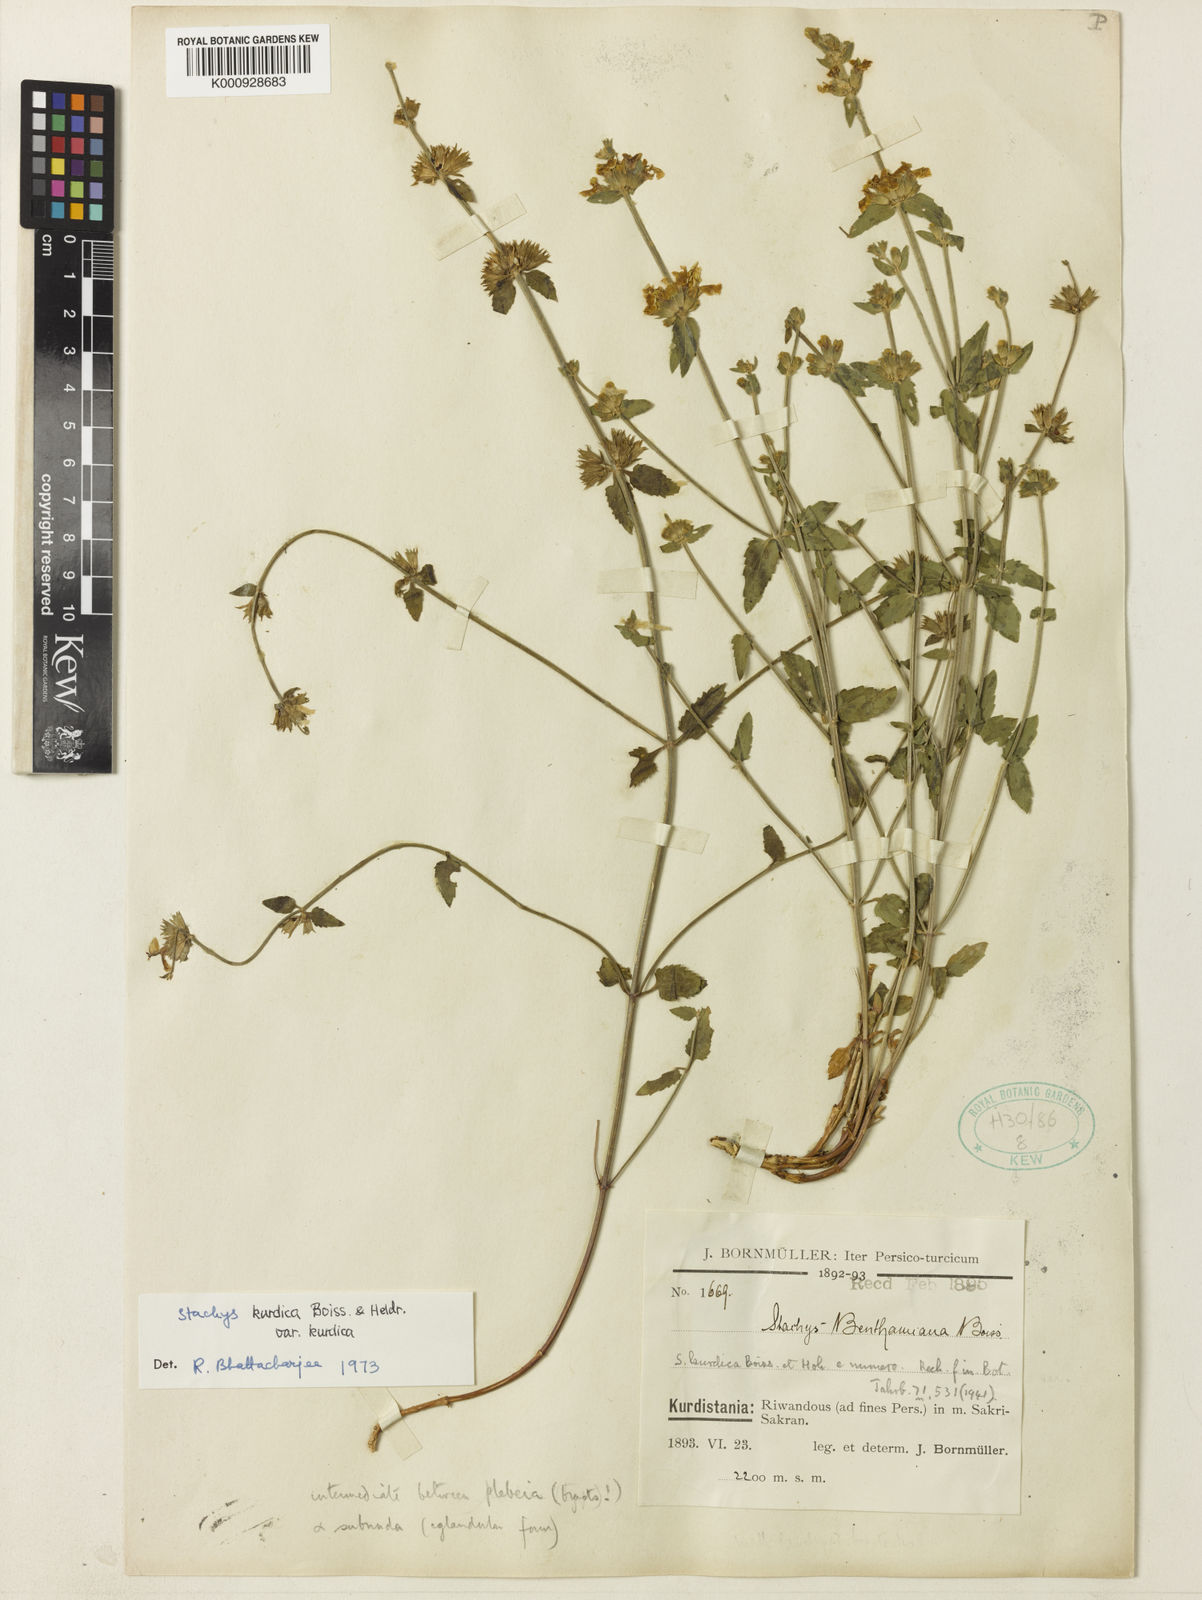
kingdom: Plantae
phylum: Tracheophyta
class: Magnoliopsida
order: Lamiales
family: Lamiaceae
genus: Stachys
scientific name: Stachys kurdica
